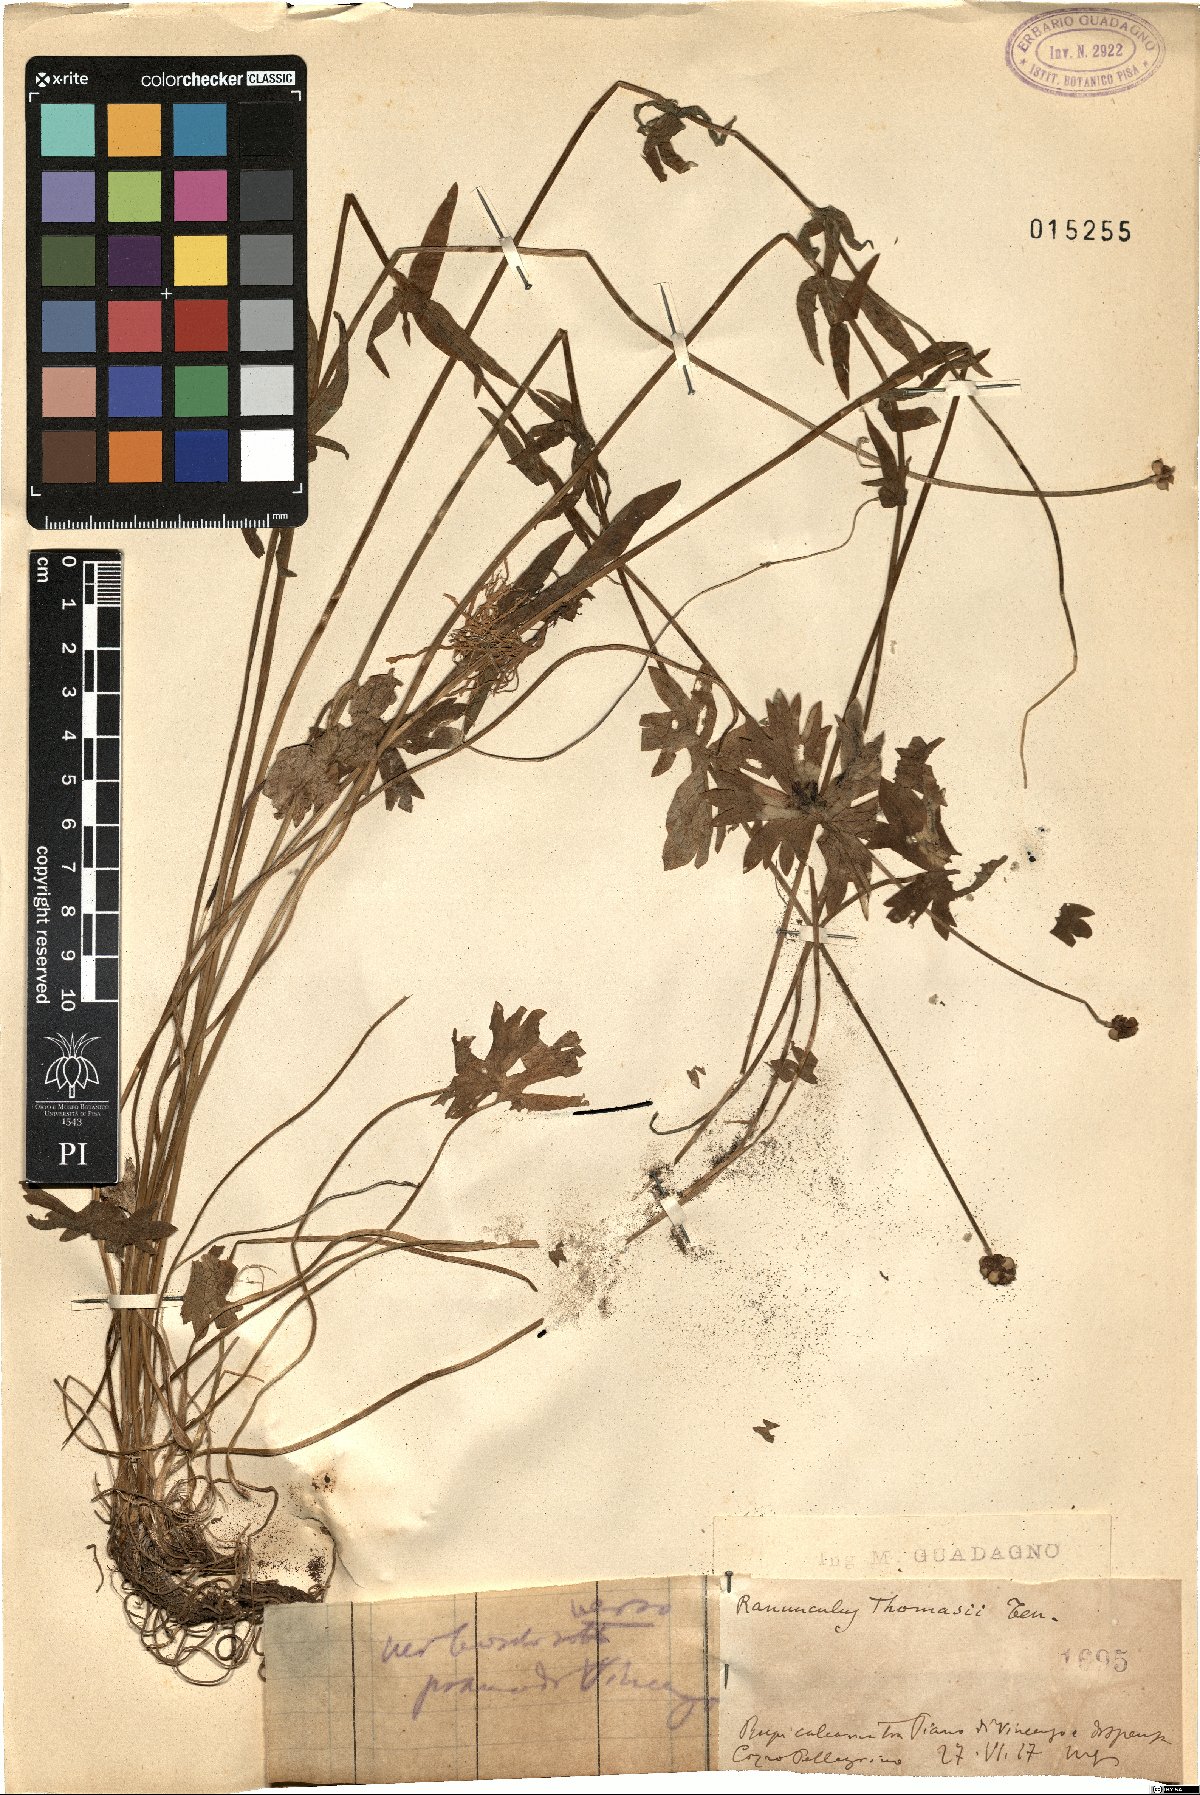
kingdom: Plantae
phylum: Tracheophyta
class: Magnoliopsida
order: Ranunculales
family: Ranunculaceae
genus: Ranunculus
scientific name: Ranunculus polyanthemos
